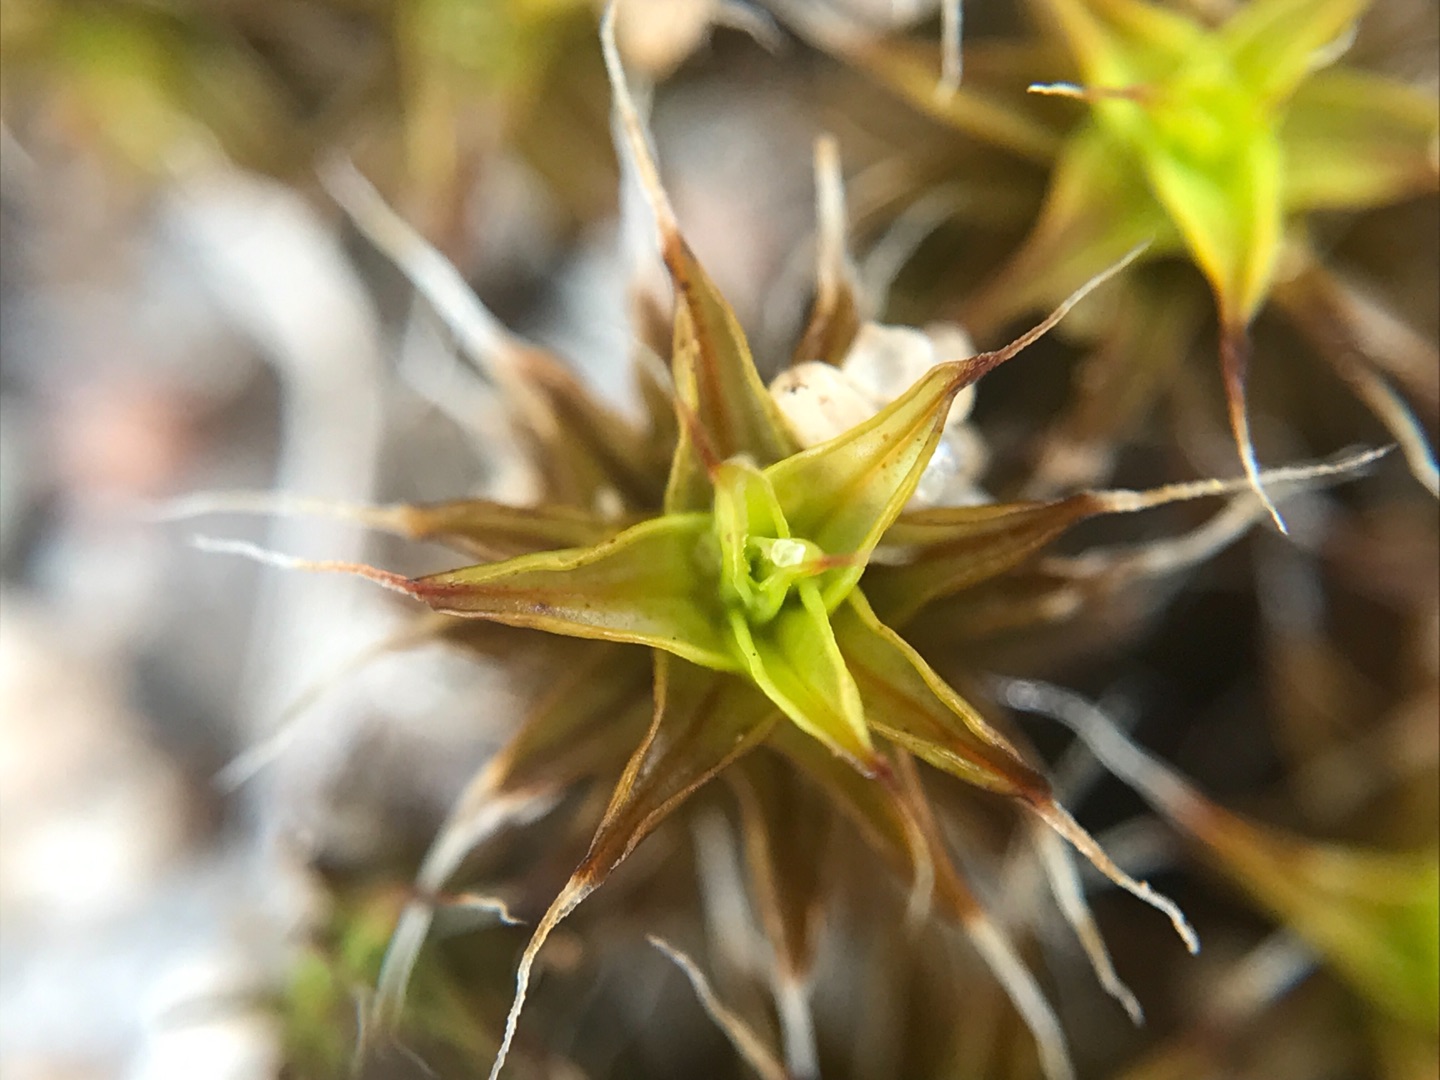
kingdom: Plantae
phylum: Bryophyta
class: Bryopsida
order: Pottiales
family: Pottiaceae
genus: Syntrichia
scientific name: Syntrichia ruralis
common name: Spidsbladet hårstjerne
